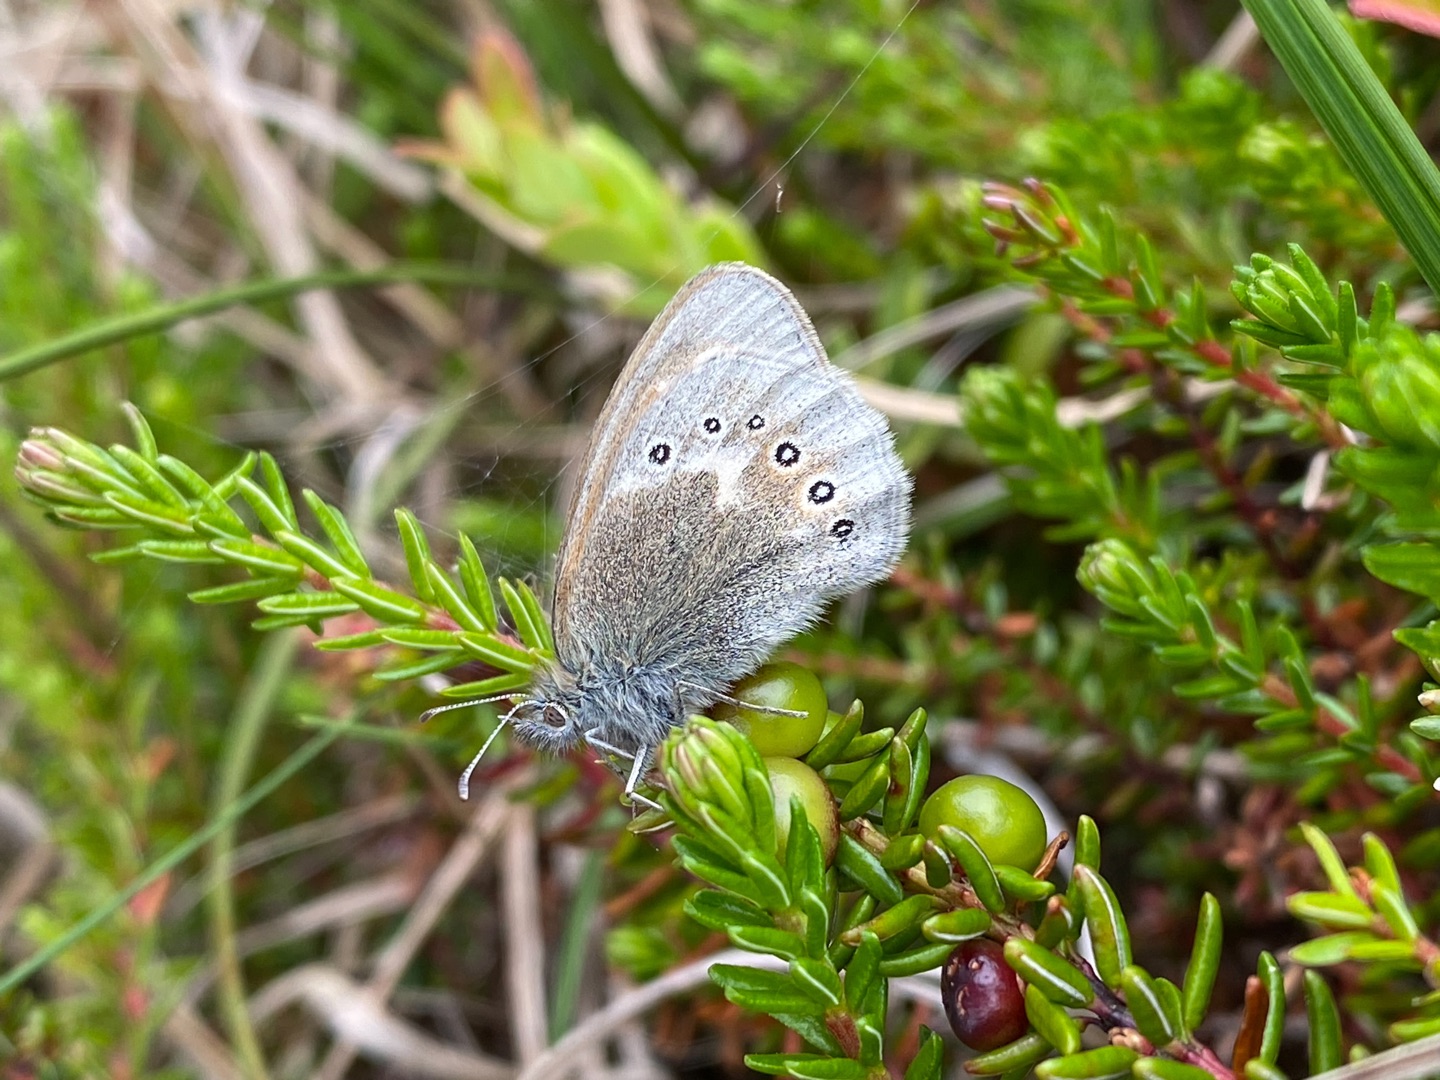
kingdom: Animalia
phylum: Arthropoda
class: Insecta
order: Lepidoptera
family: Nymphalidae
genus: Coenonympha
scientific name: Coenonympha tullia
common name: Moserandøje
